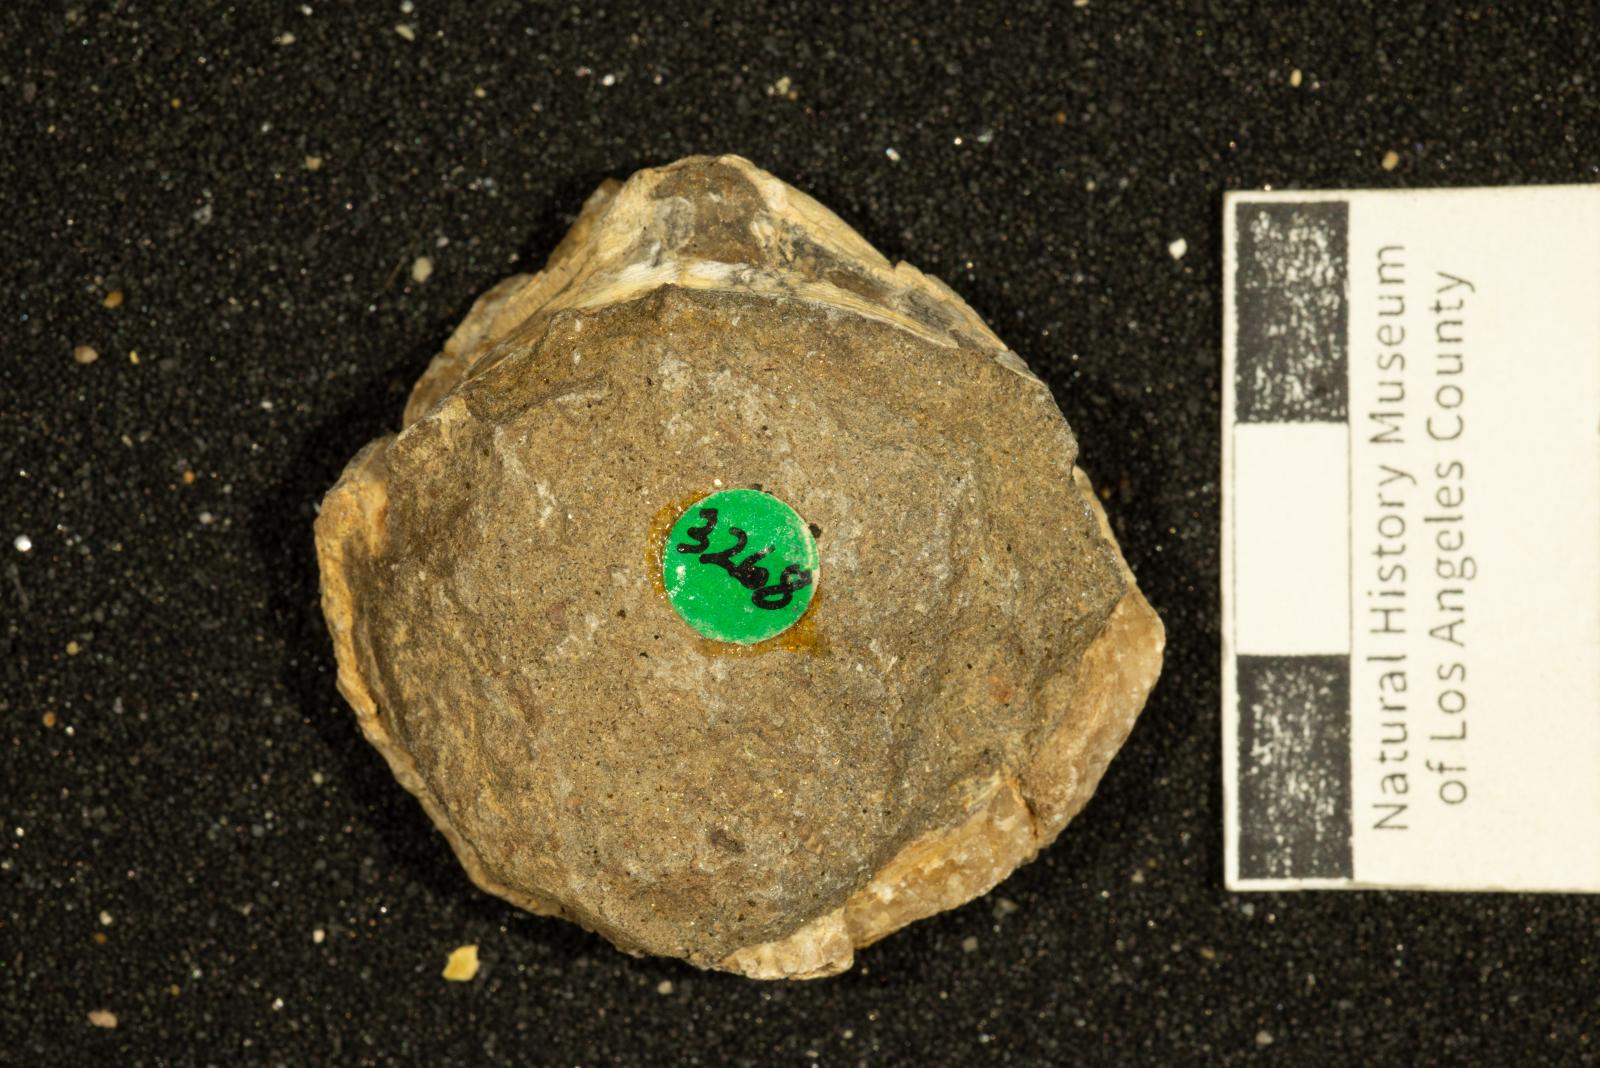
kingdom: Animalia
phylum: Mollusca
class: Bivalvia
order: Arcida
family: Glycymerididae
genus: Glycymerita
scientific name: Glycymerita Glycymeris banosensis
